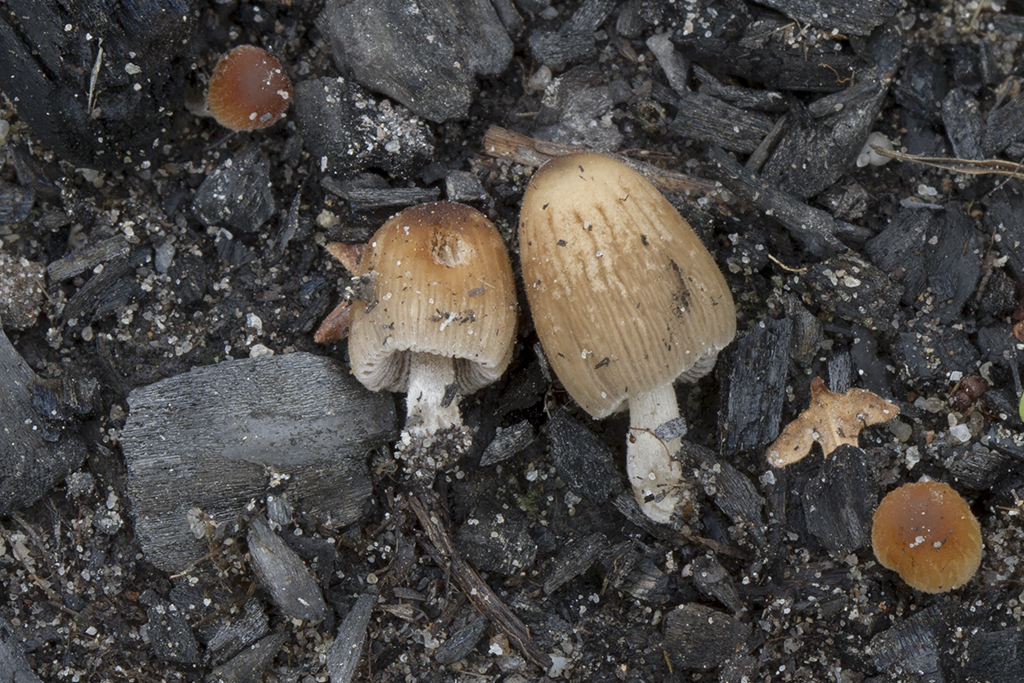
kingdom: Fungi
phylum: Basidiomycota
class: Agaricomycetes
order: Agaricales
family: Psathyrellaceae
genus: Tulosesus
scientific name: Tulosesus angulatus
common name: kul-blækhat
